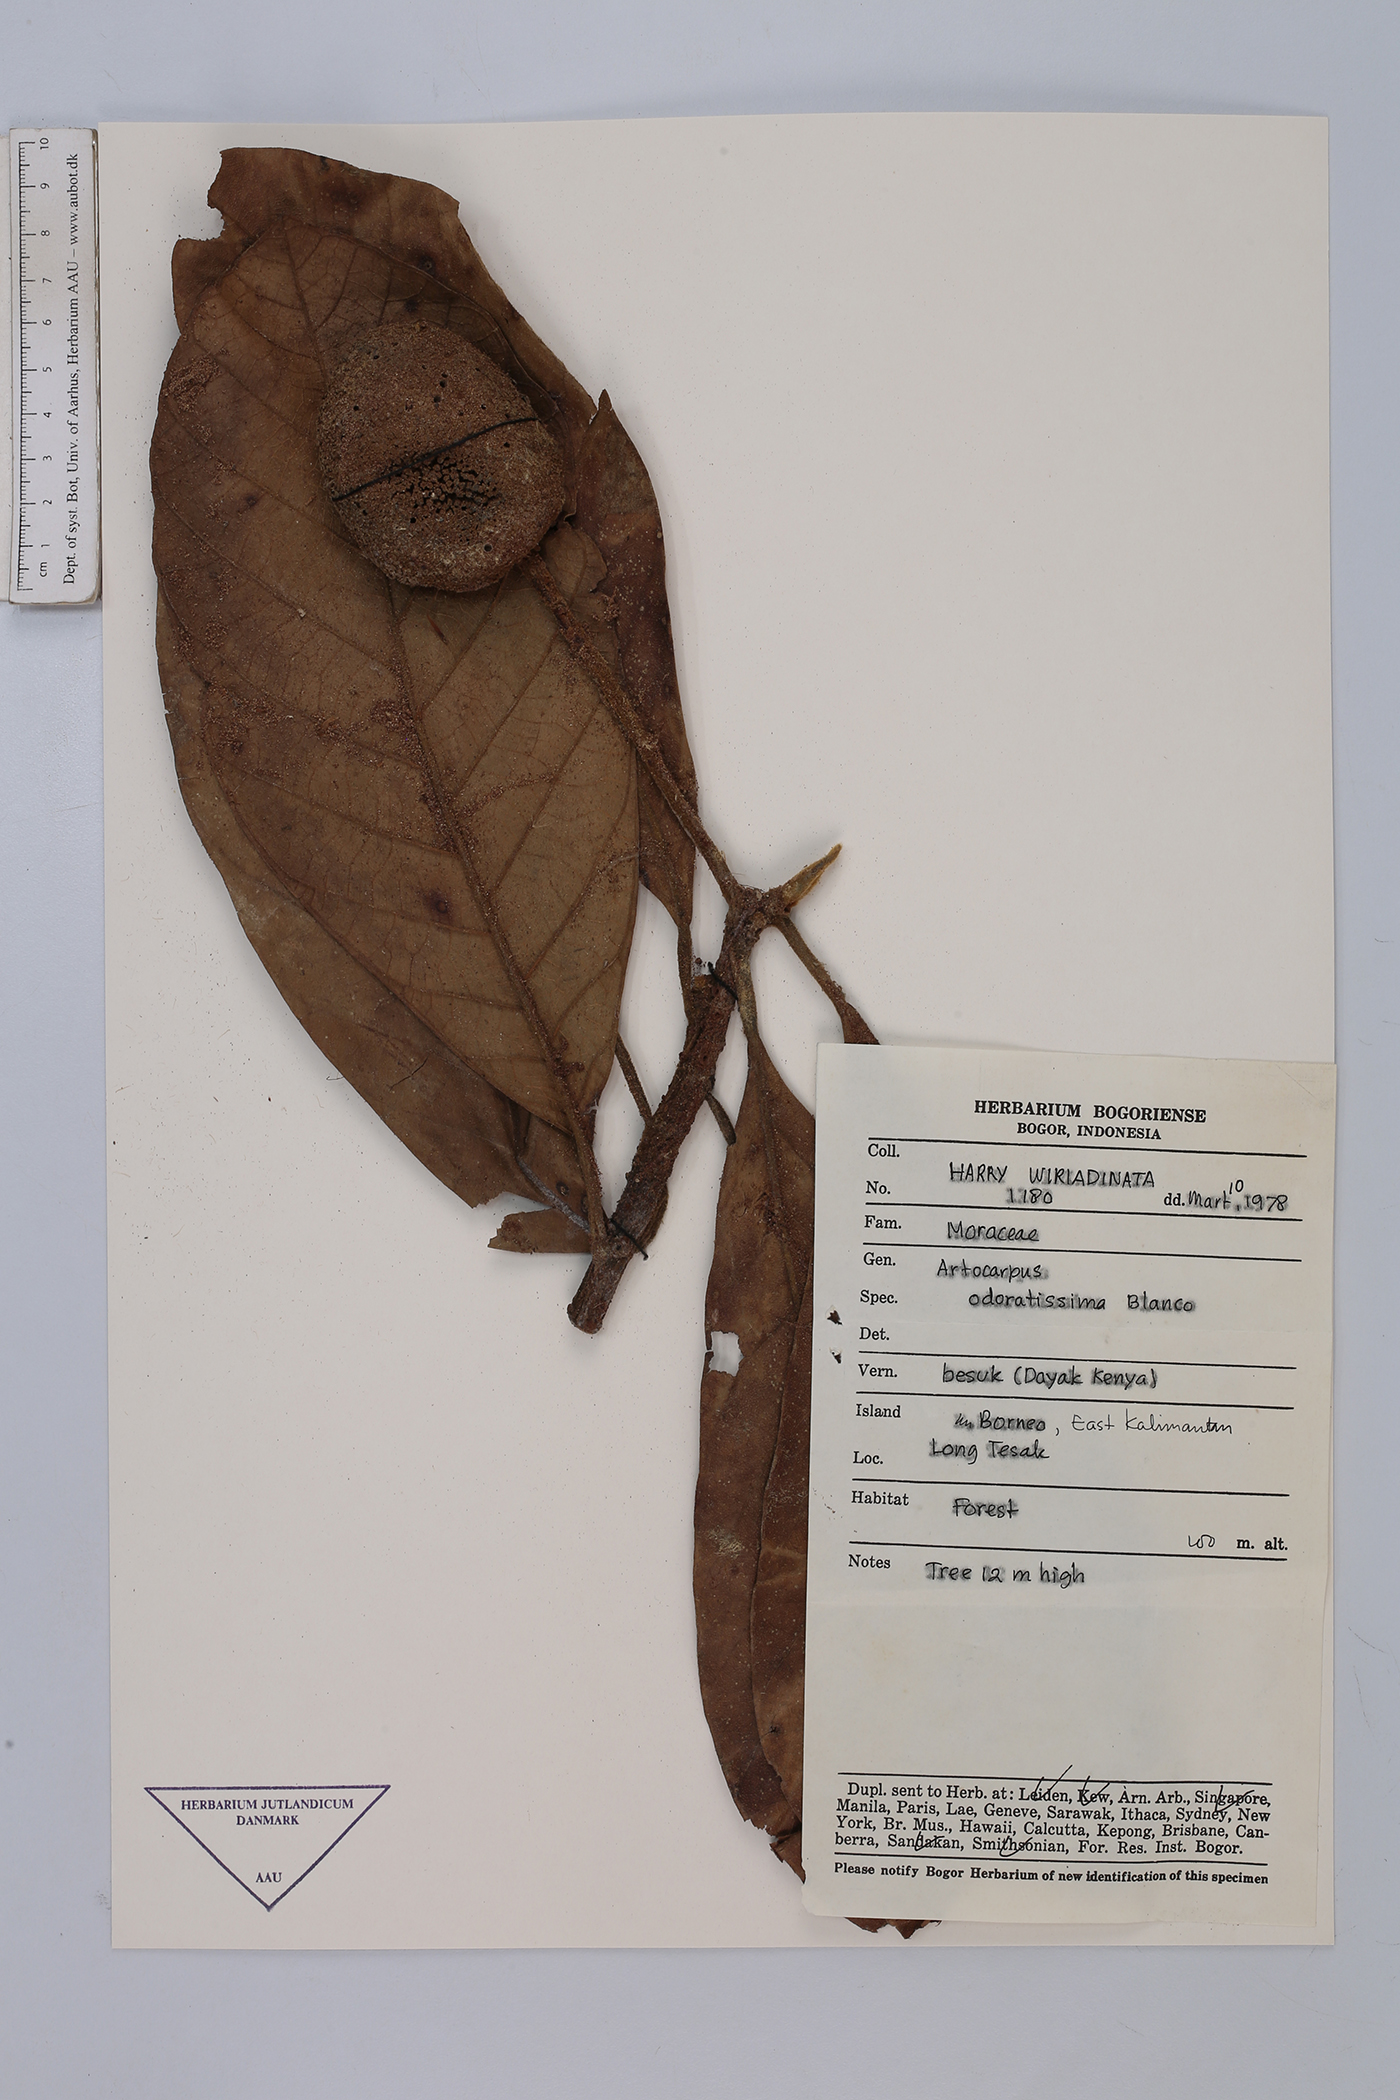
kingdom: Plantae
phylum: Tracheophyta
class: Magnoliopsida
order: Rosales
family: Moraceae
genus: Artocarpus
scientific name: Artocarpus odoratissimus
